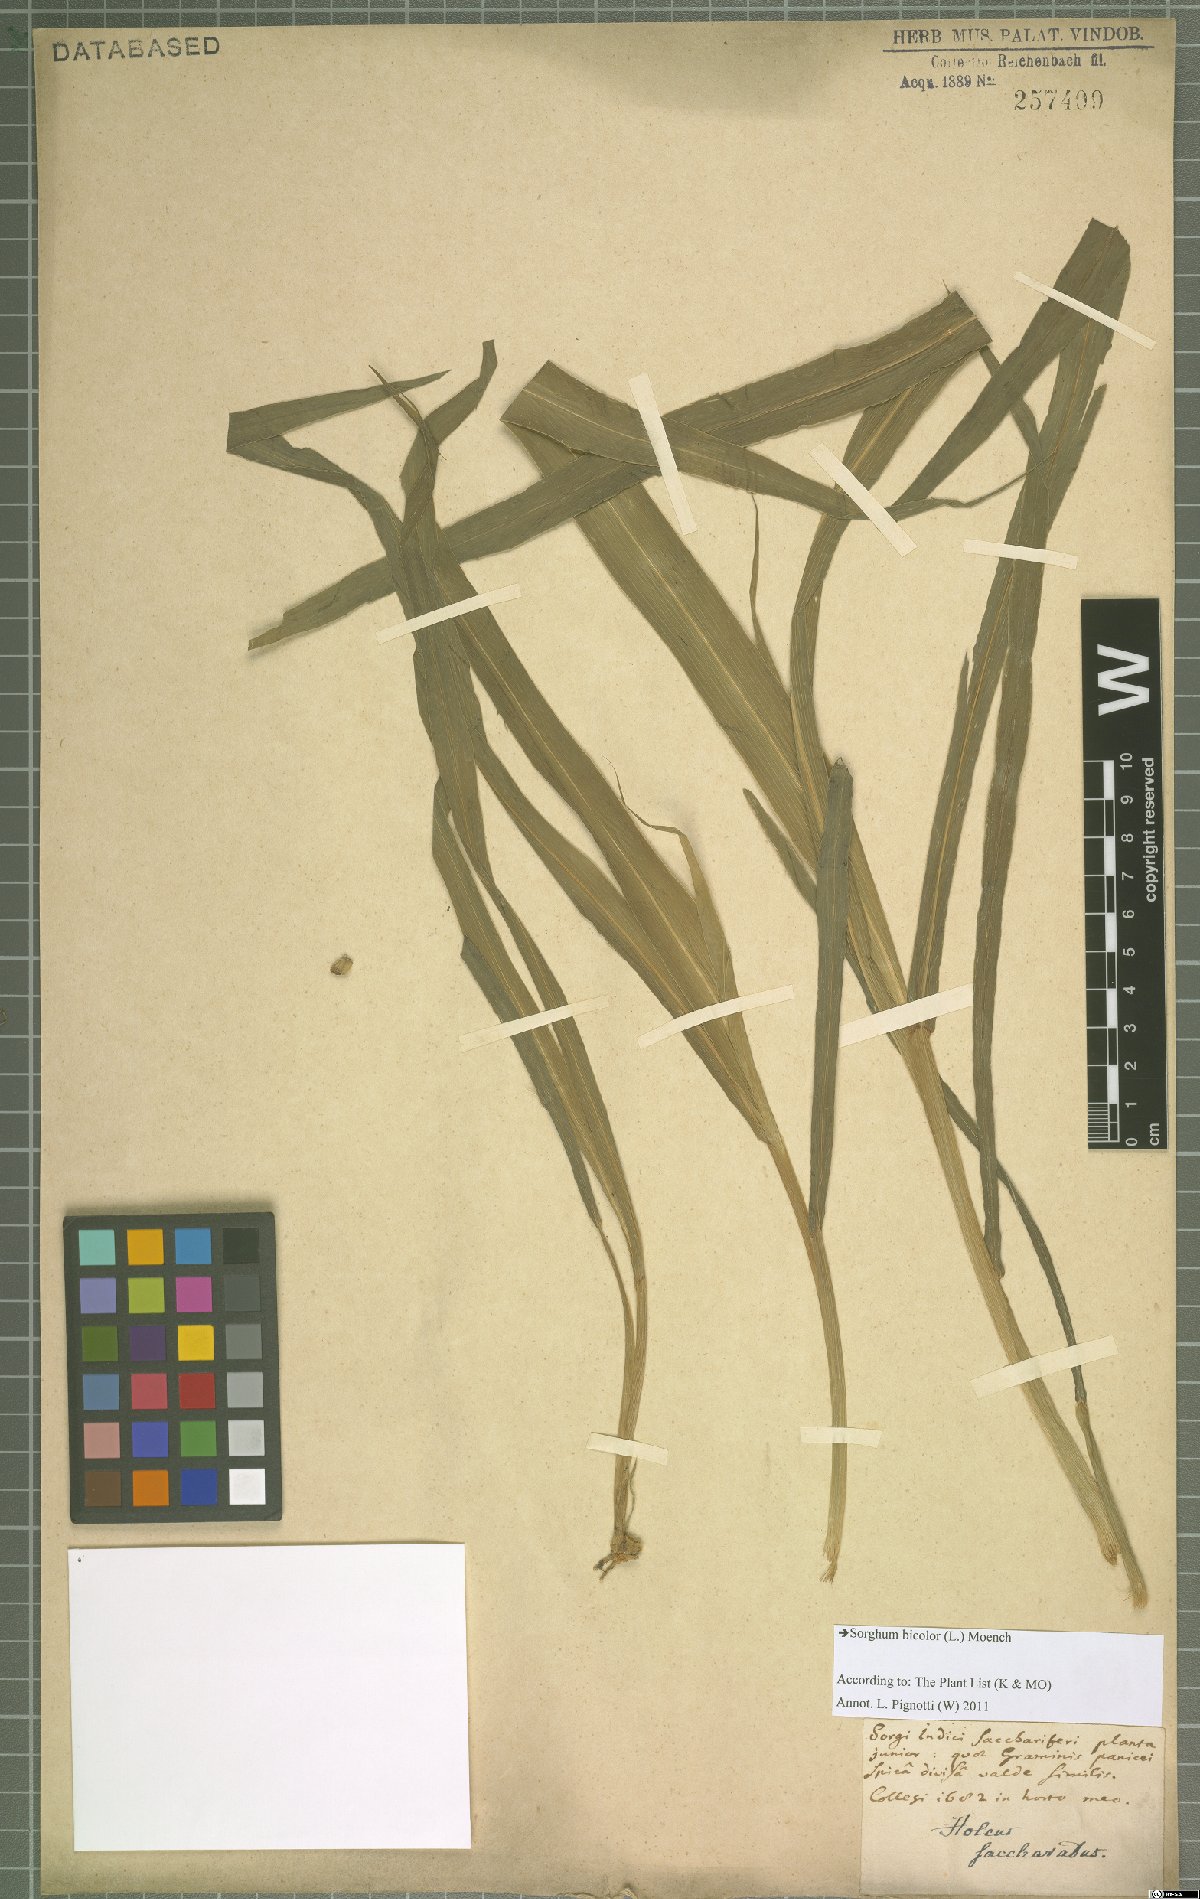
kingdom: Plantae
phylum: Tracheophyta
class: Liliopsida
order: Poales
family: Poaceae
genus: Sorghum
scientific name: Sorghum bicolor
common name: Sorghum
